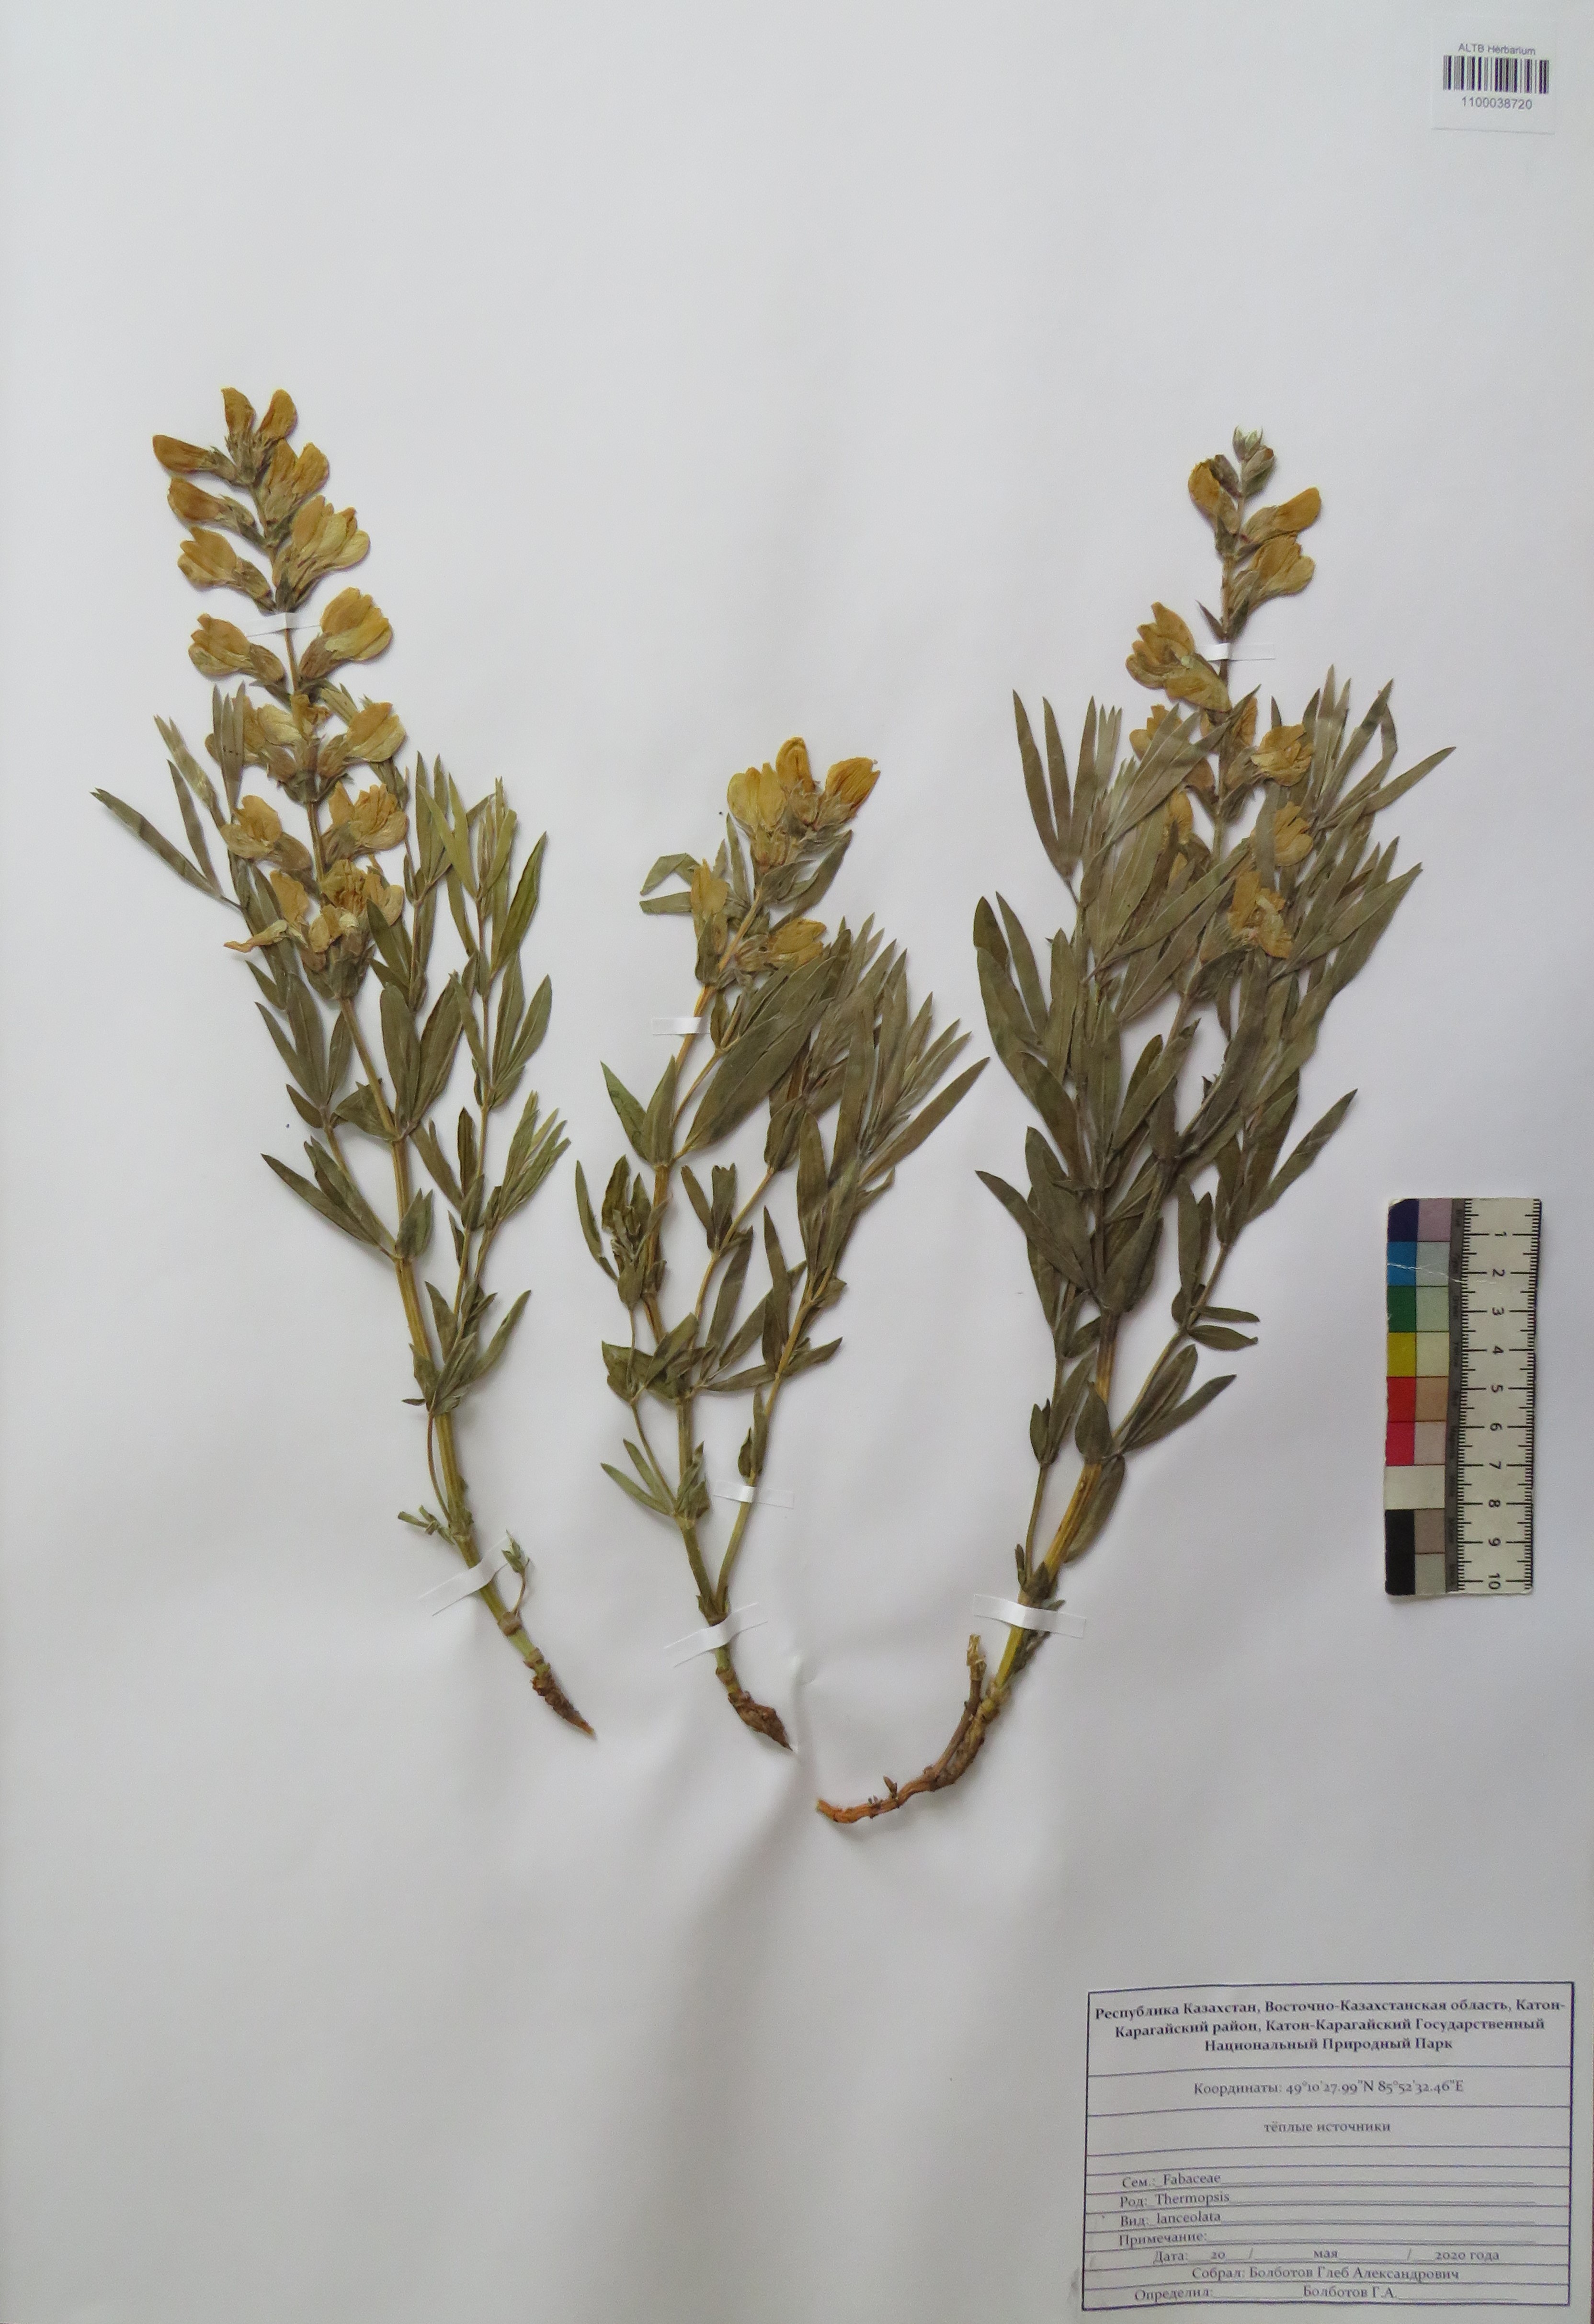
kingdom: Plantae
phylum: Tracheophyta
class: Magnoliopsida
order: Fabales
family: Fabaceae
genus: Thermopsis
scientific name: Thermopsis lanceolata
